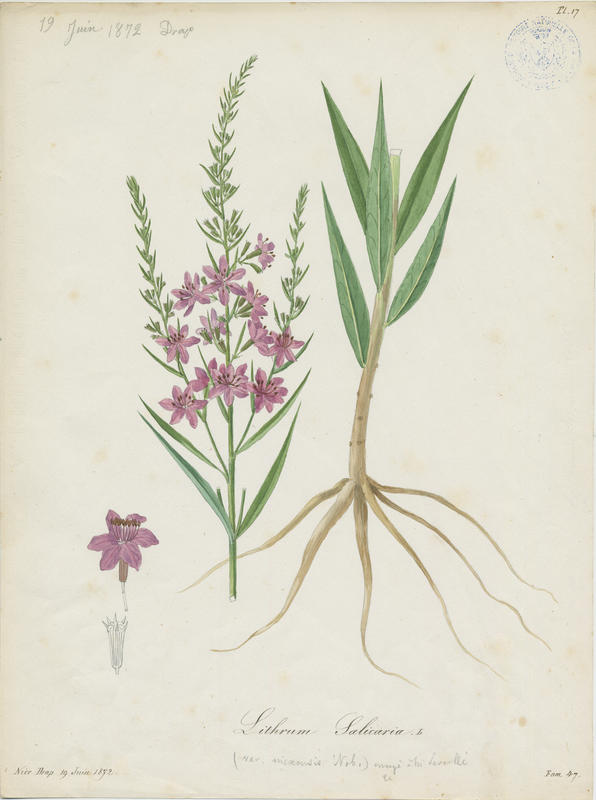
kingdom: Plantae
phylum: Tracheophyta
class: Magnoliopsida
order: Myrtales
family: Lythraceae
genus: Lythrum
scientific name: Lythrum salicaria
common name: Purple loosestrife
